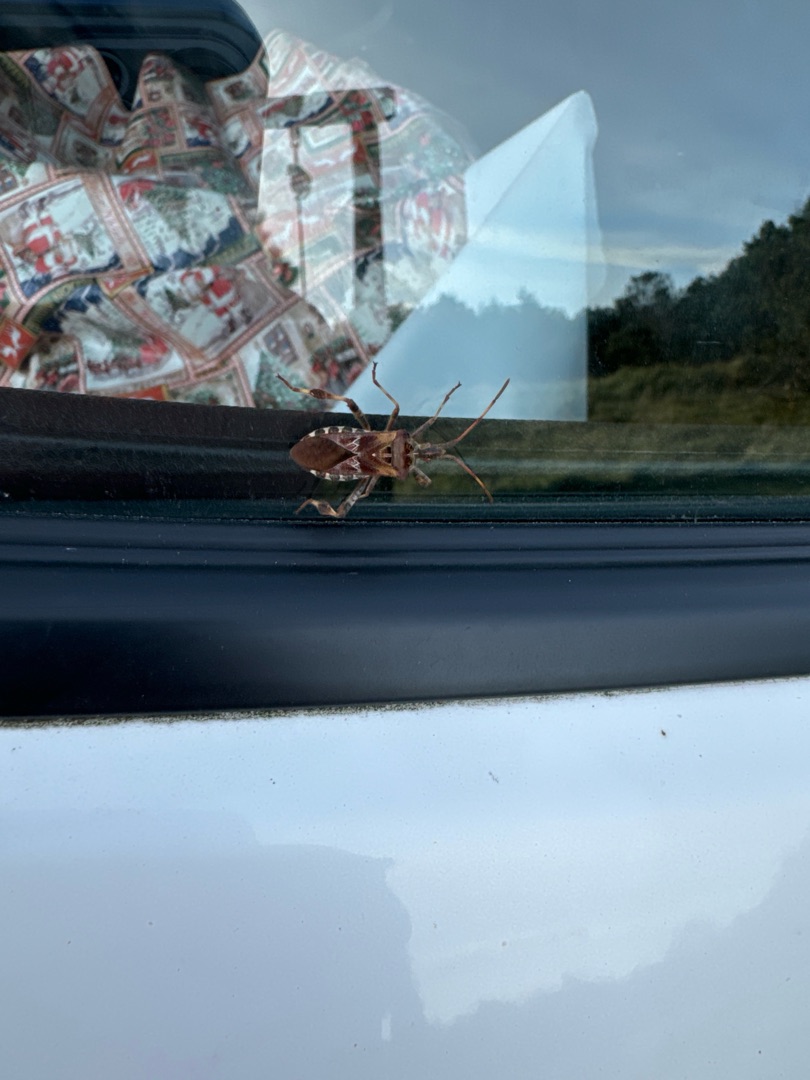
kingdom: Animalia
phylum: Arthropoda
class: Insecta
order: Hemiptera
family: Coreidae
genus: Leptoglossus
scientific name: Leptoglossus occidentalis
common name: Amerikansk fyrretæge
